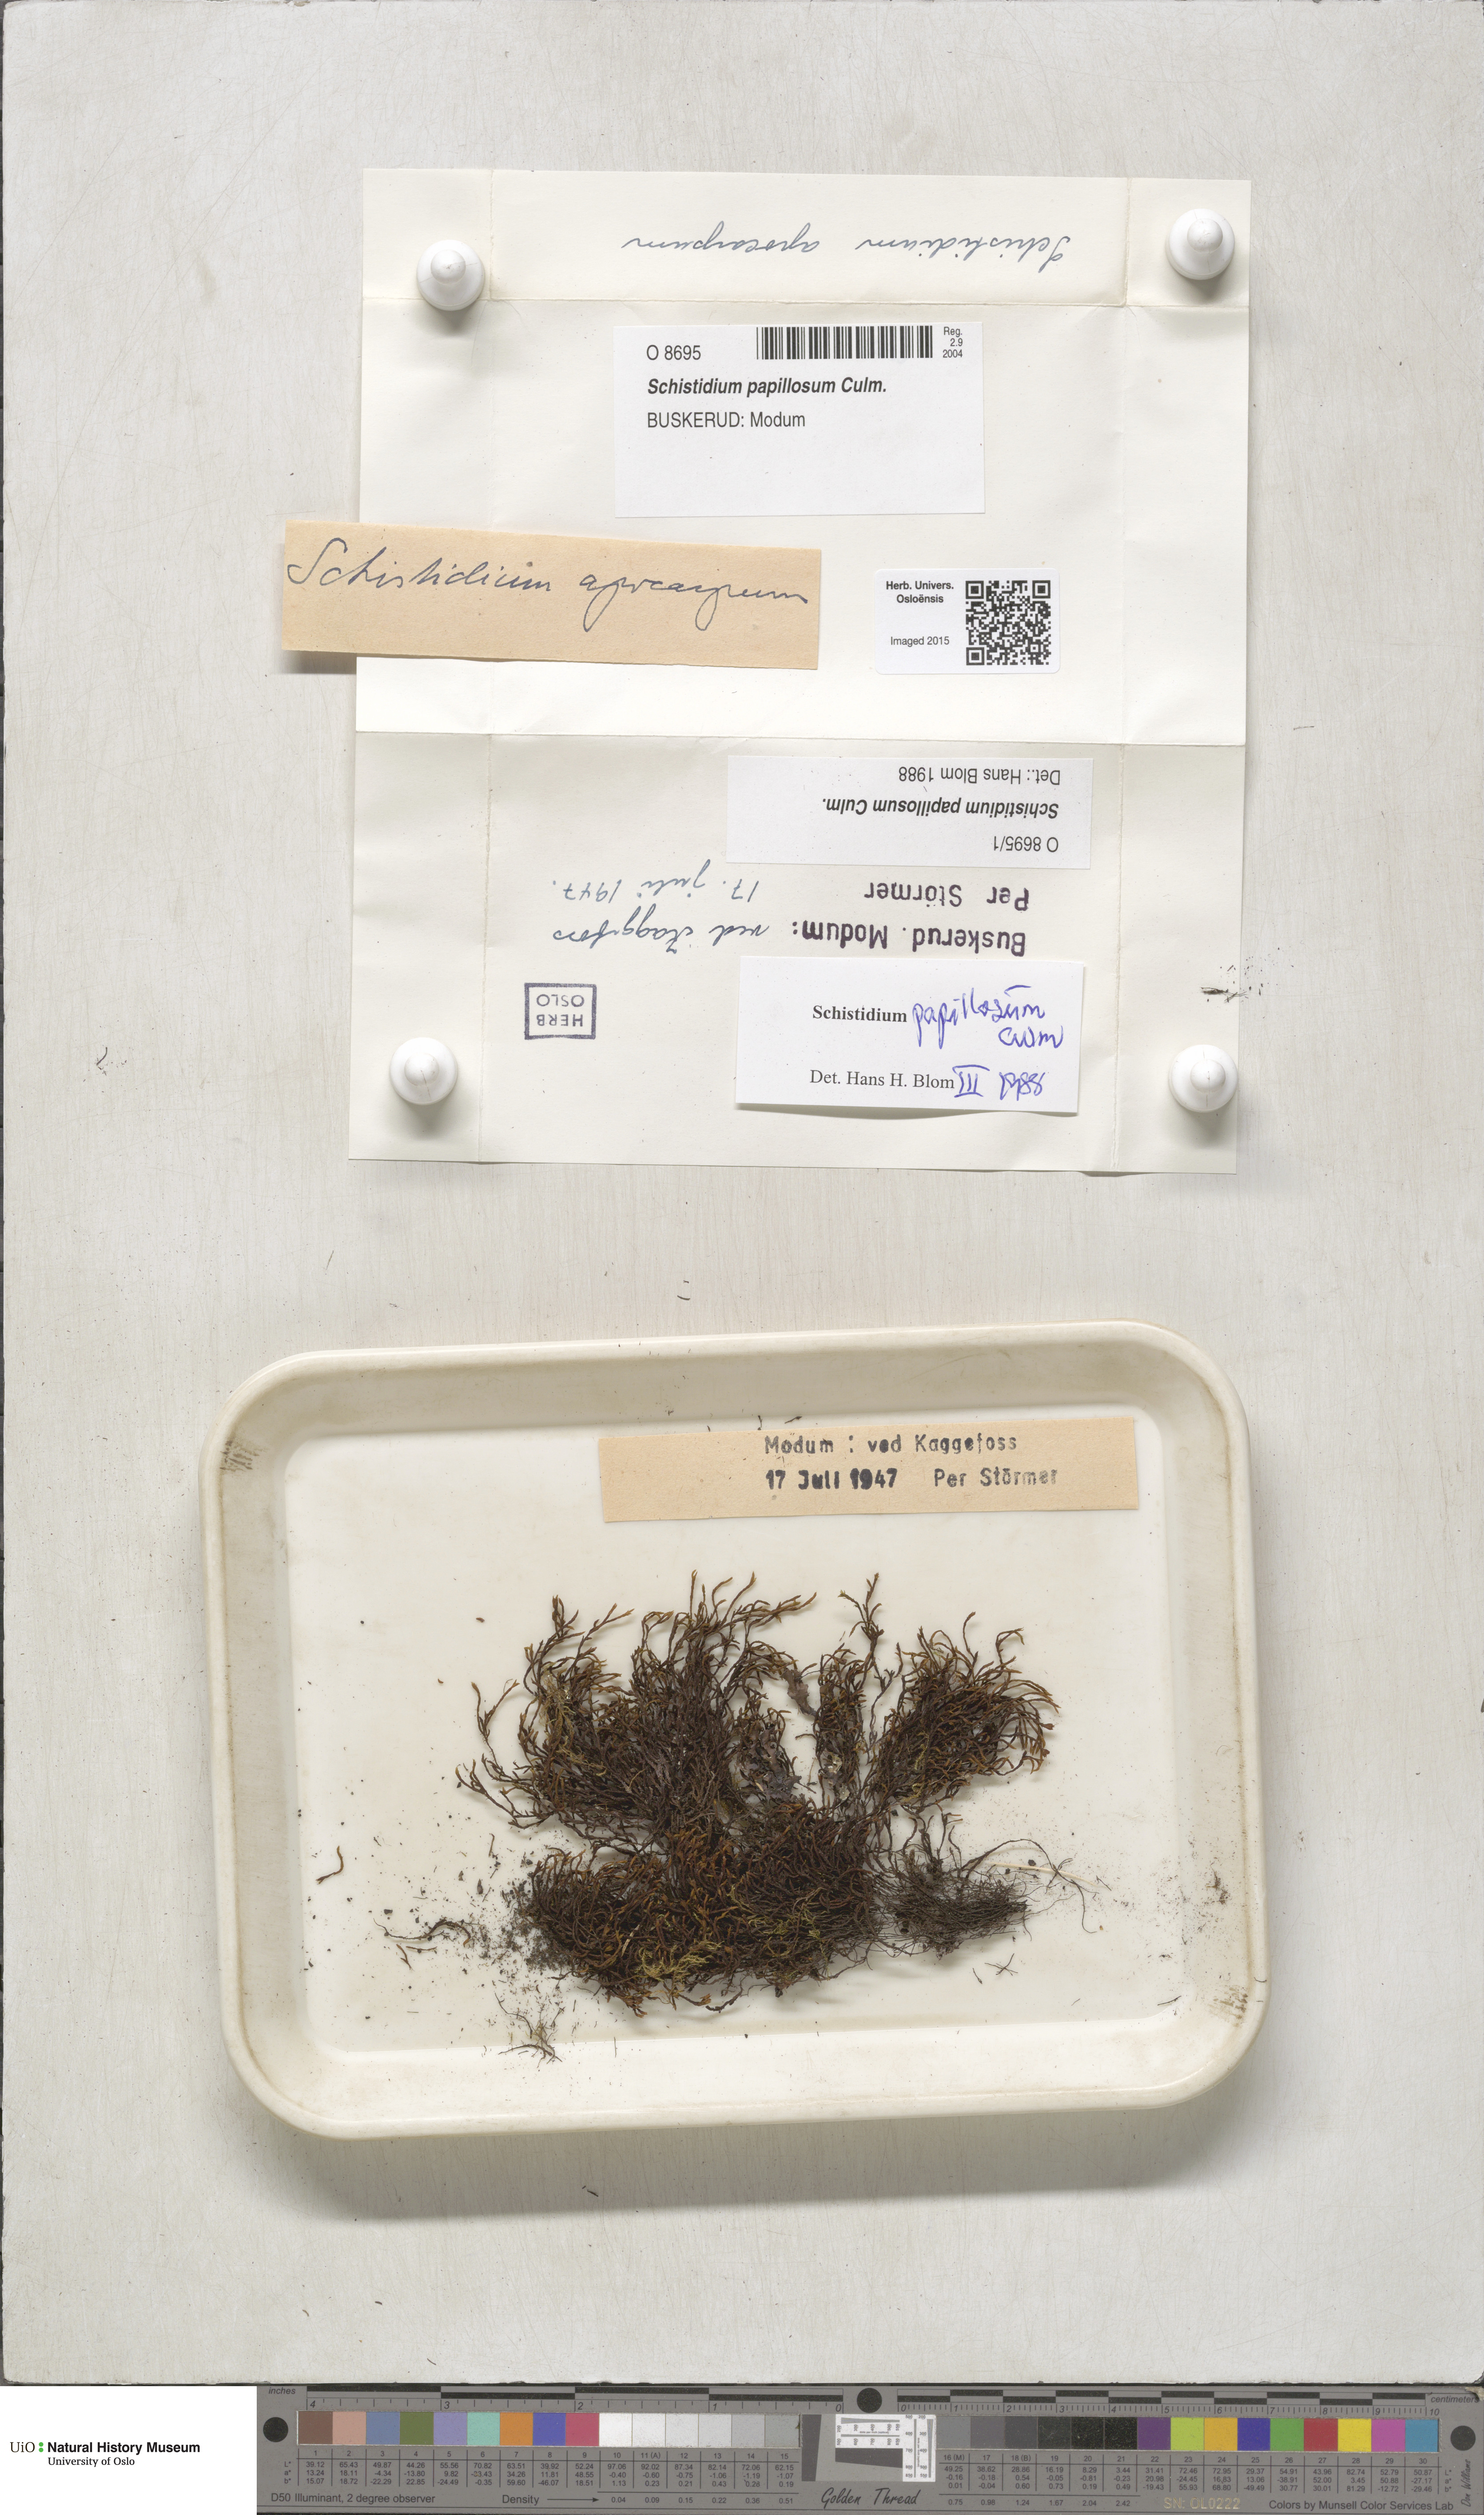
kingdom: Plantae
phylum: Bryophyta
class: Bryopsida
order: Grimmiales
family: Grimmiaceae
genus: Schistidium
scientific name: Schistidium papillosum
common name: Papillose bloom moss
